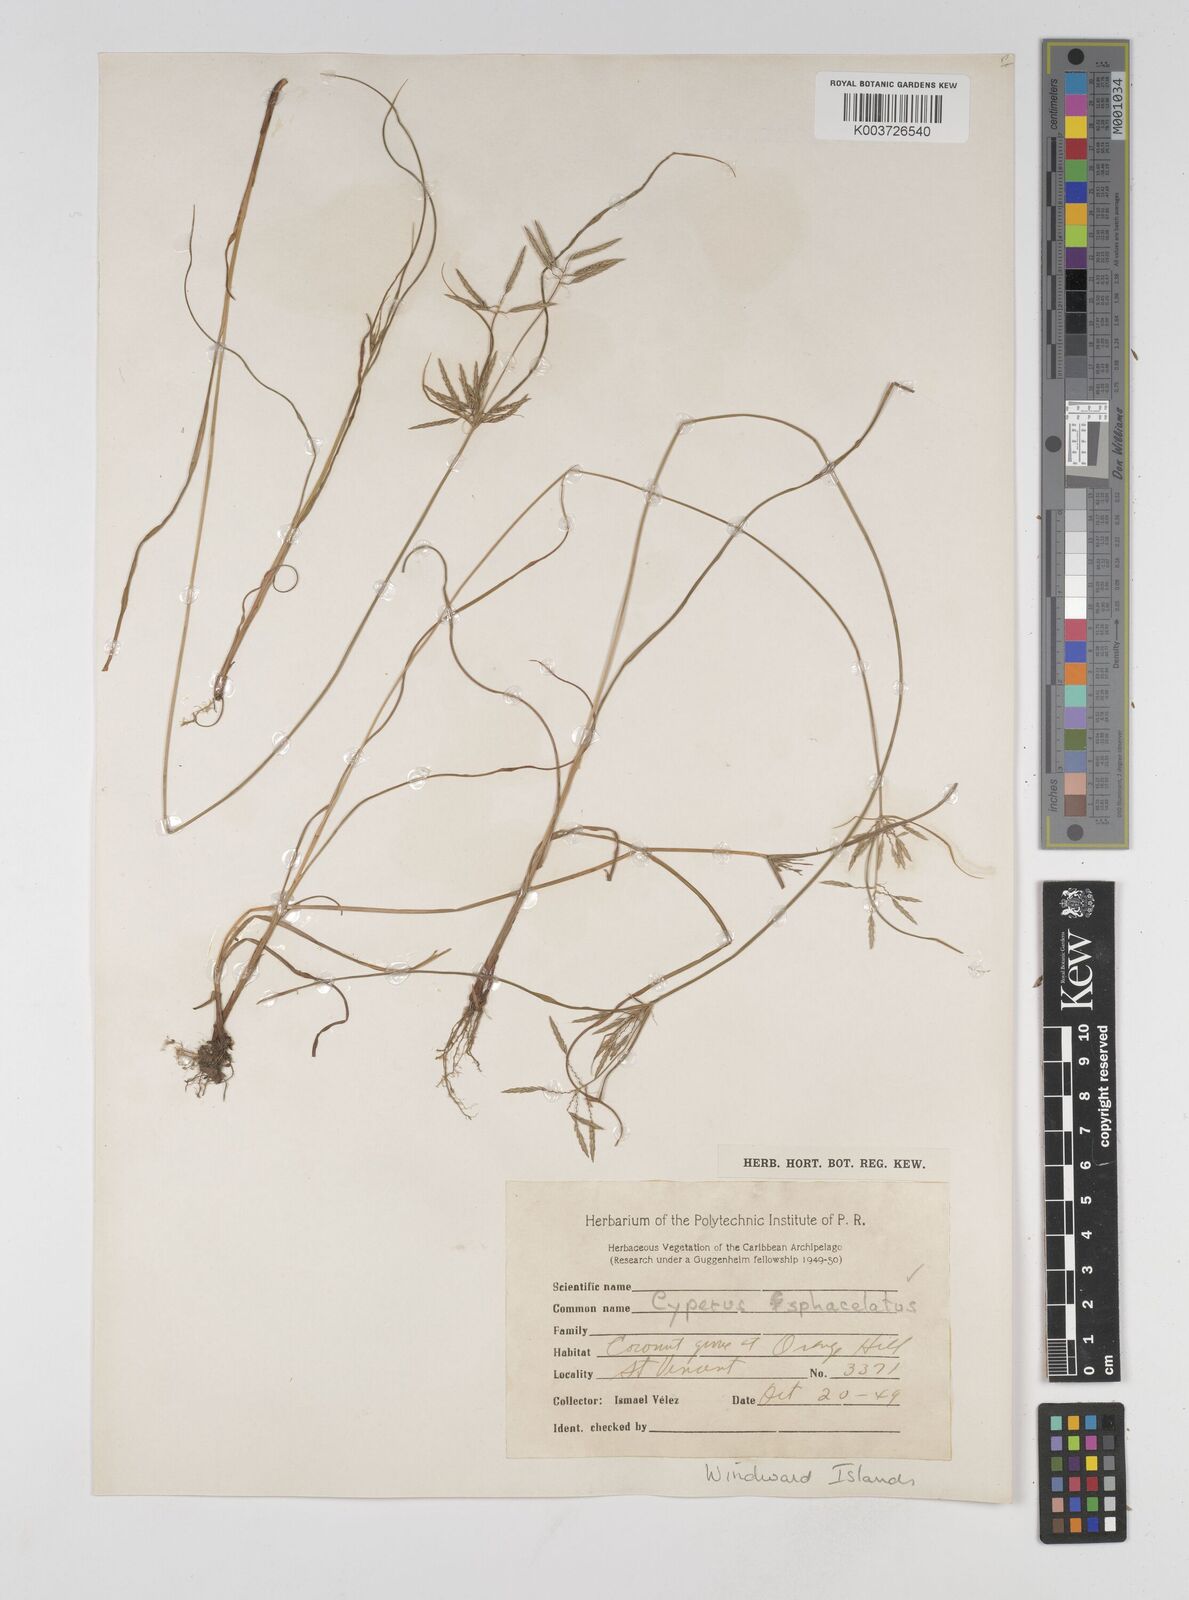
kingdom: Plantae
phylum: Tracheophyta
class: Liliopsida
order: Poales
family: Cyperaceae
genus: Cyperus
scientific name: Cyperus sphacelatus
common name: Roadside flatsedge
